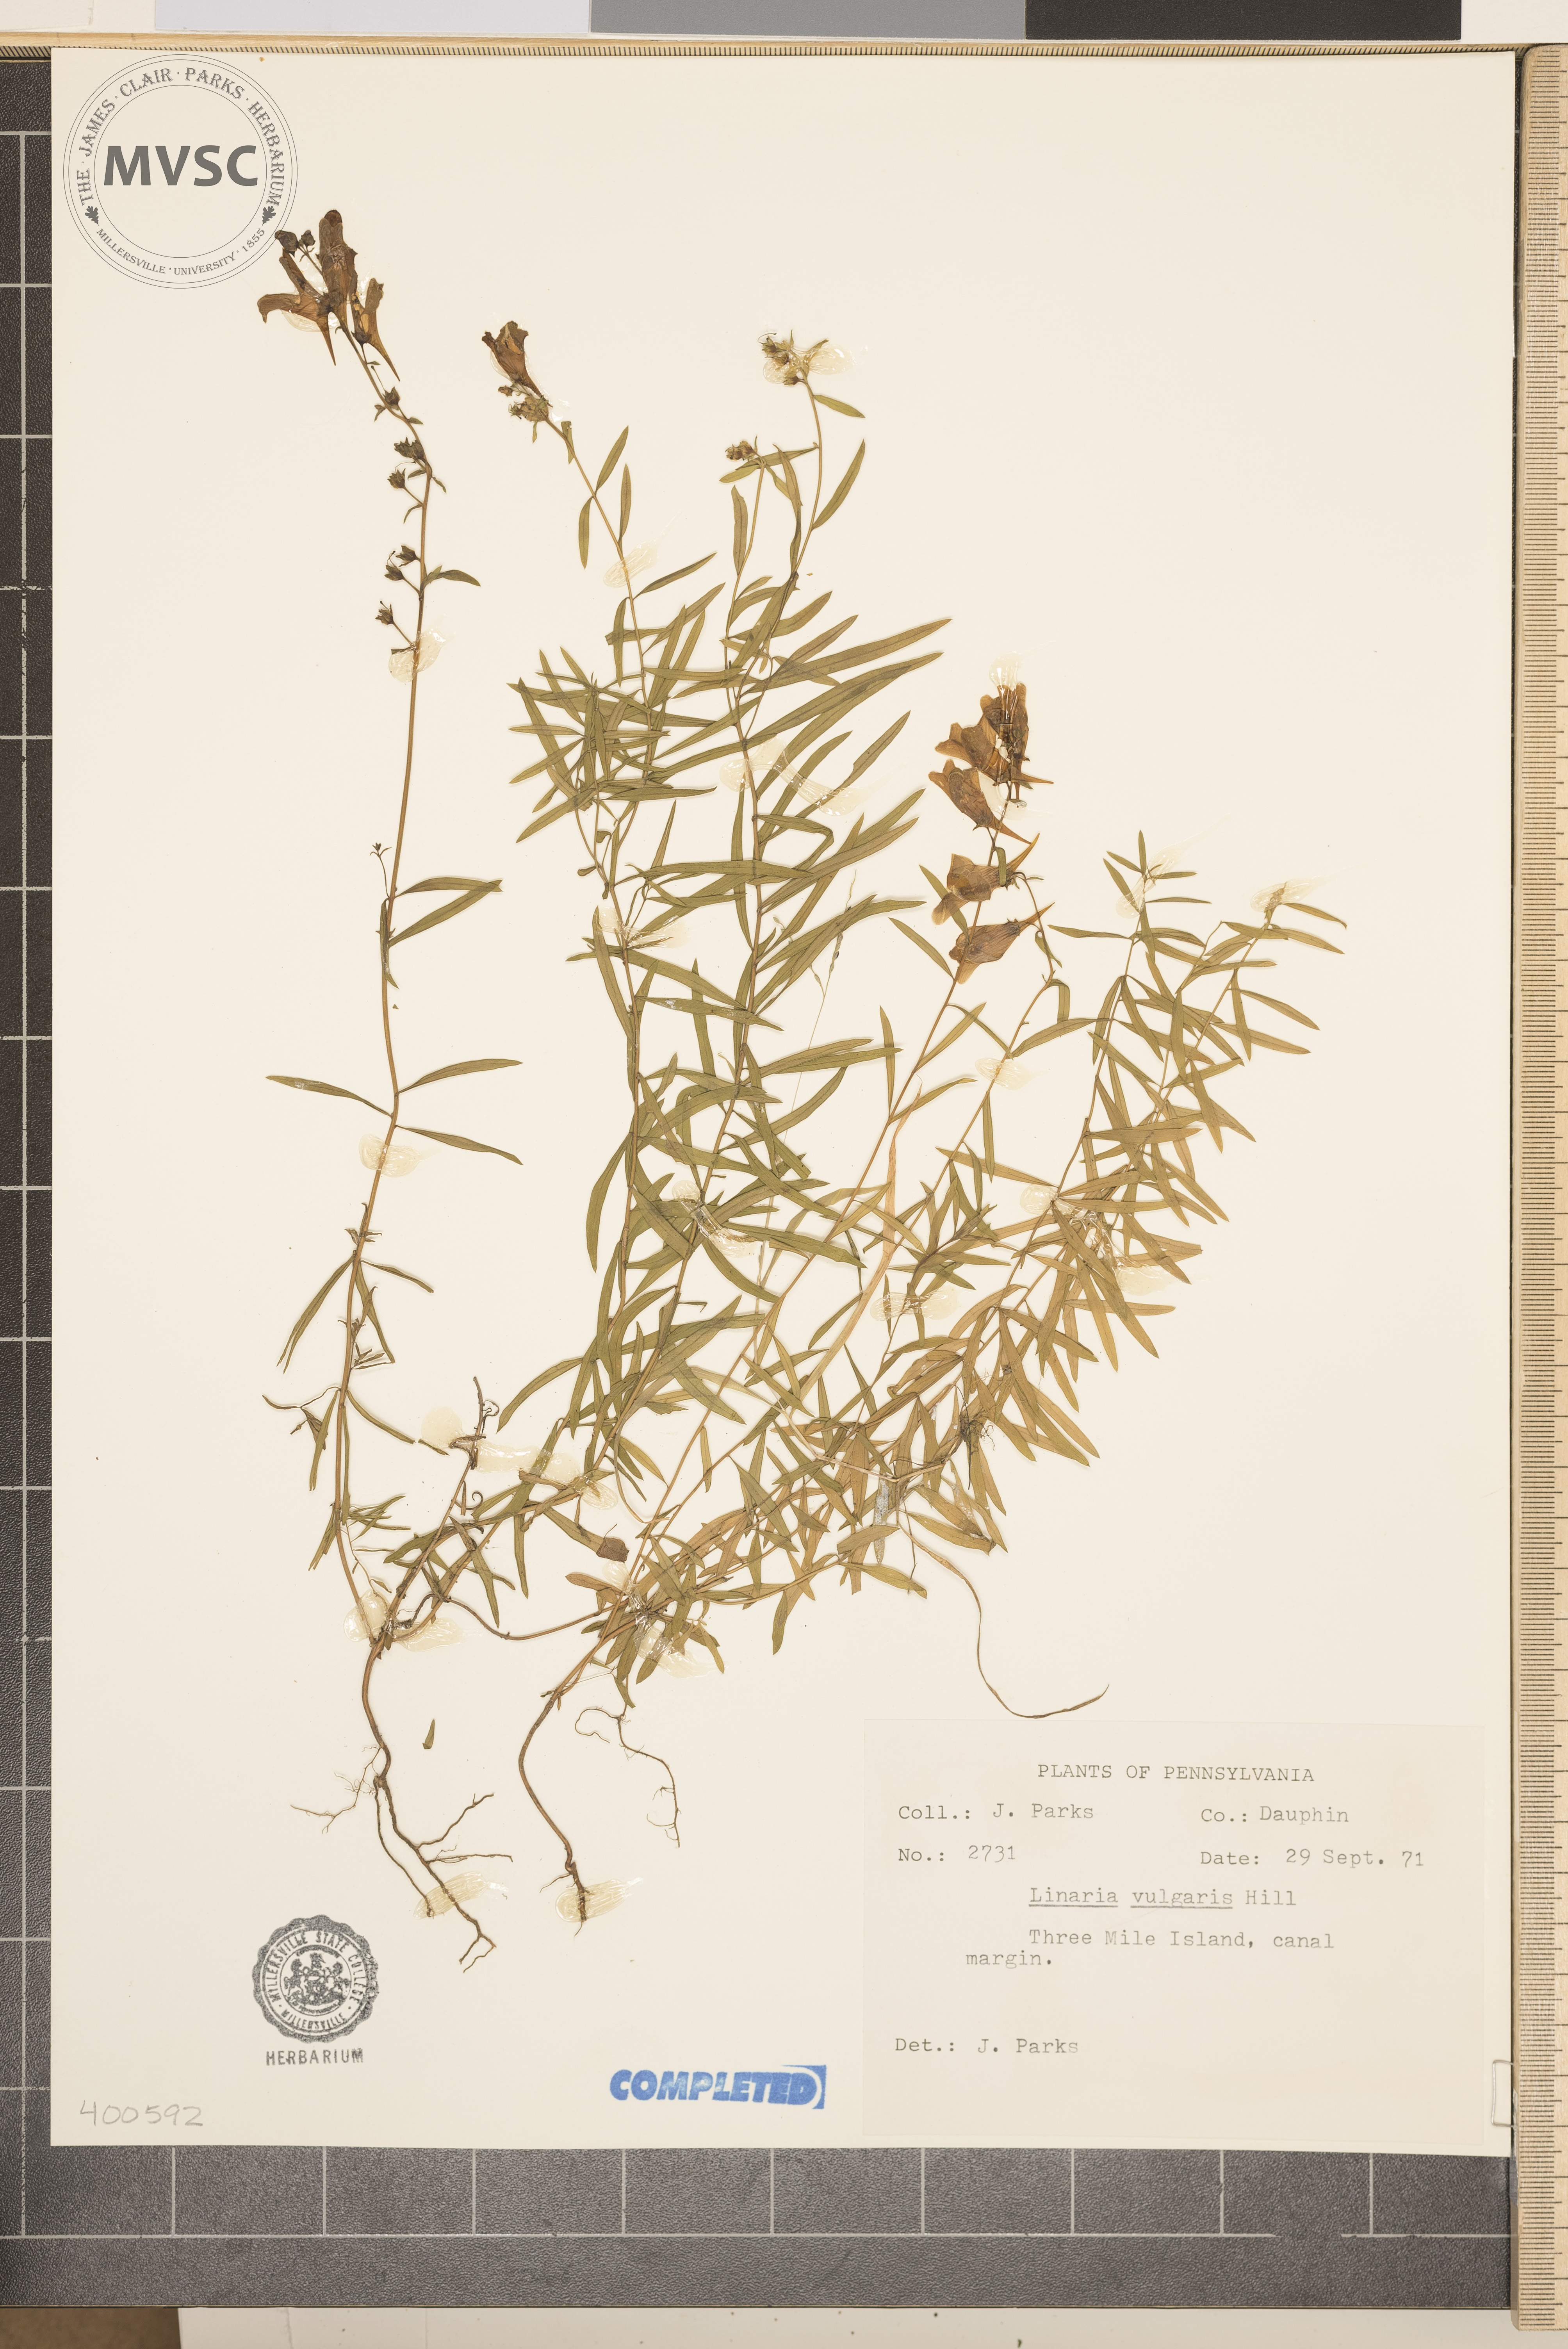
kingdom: Plantae
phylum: Tracheophyta
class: Magnoliopsida
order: Lamiales
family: Plantaginaceae
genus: Linaria
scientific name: Linaria vulgaris
